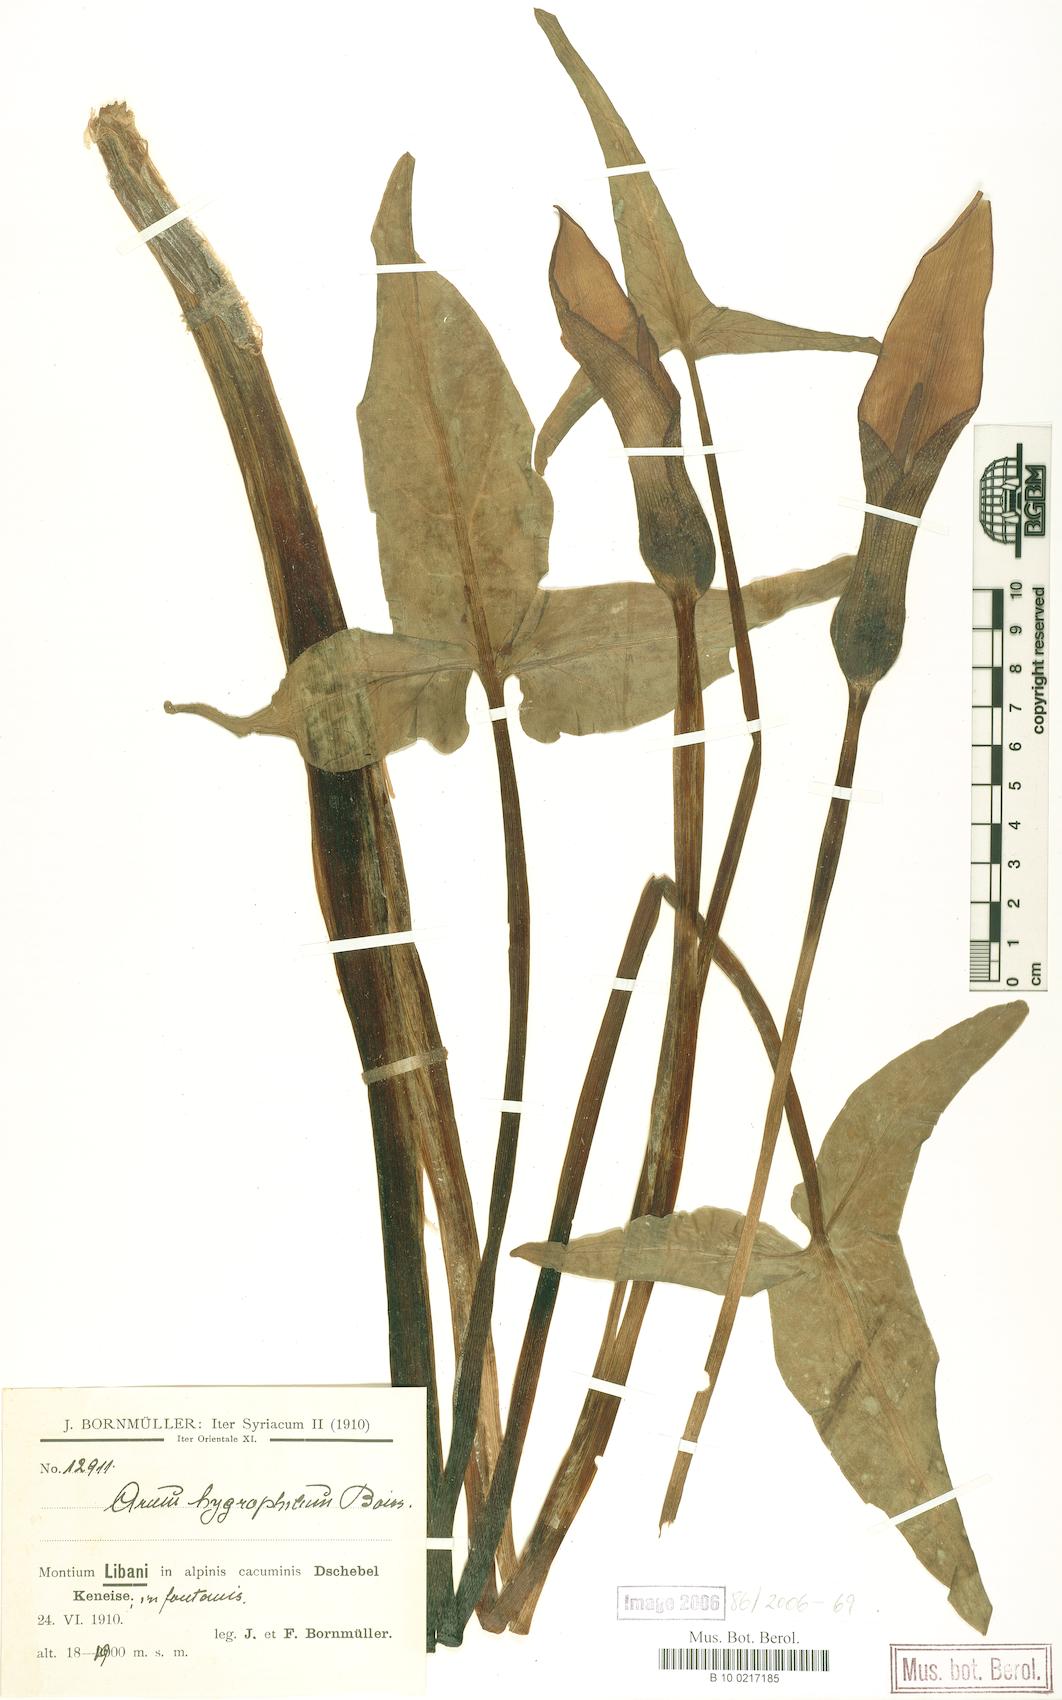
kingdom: Plantae
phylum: Tracheophyta
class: Liliopsida
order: Alismatales
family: Araceae
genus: Arum
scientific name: Arum hygrophilum
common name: Water arum
